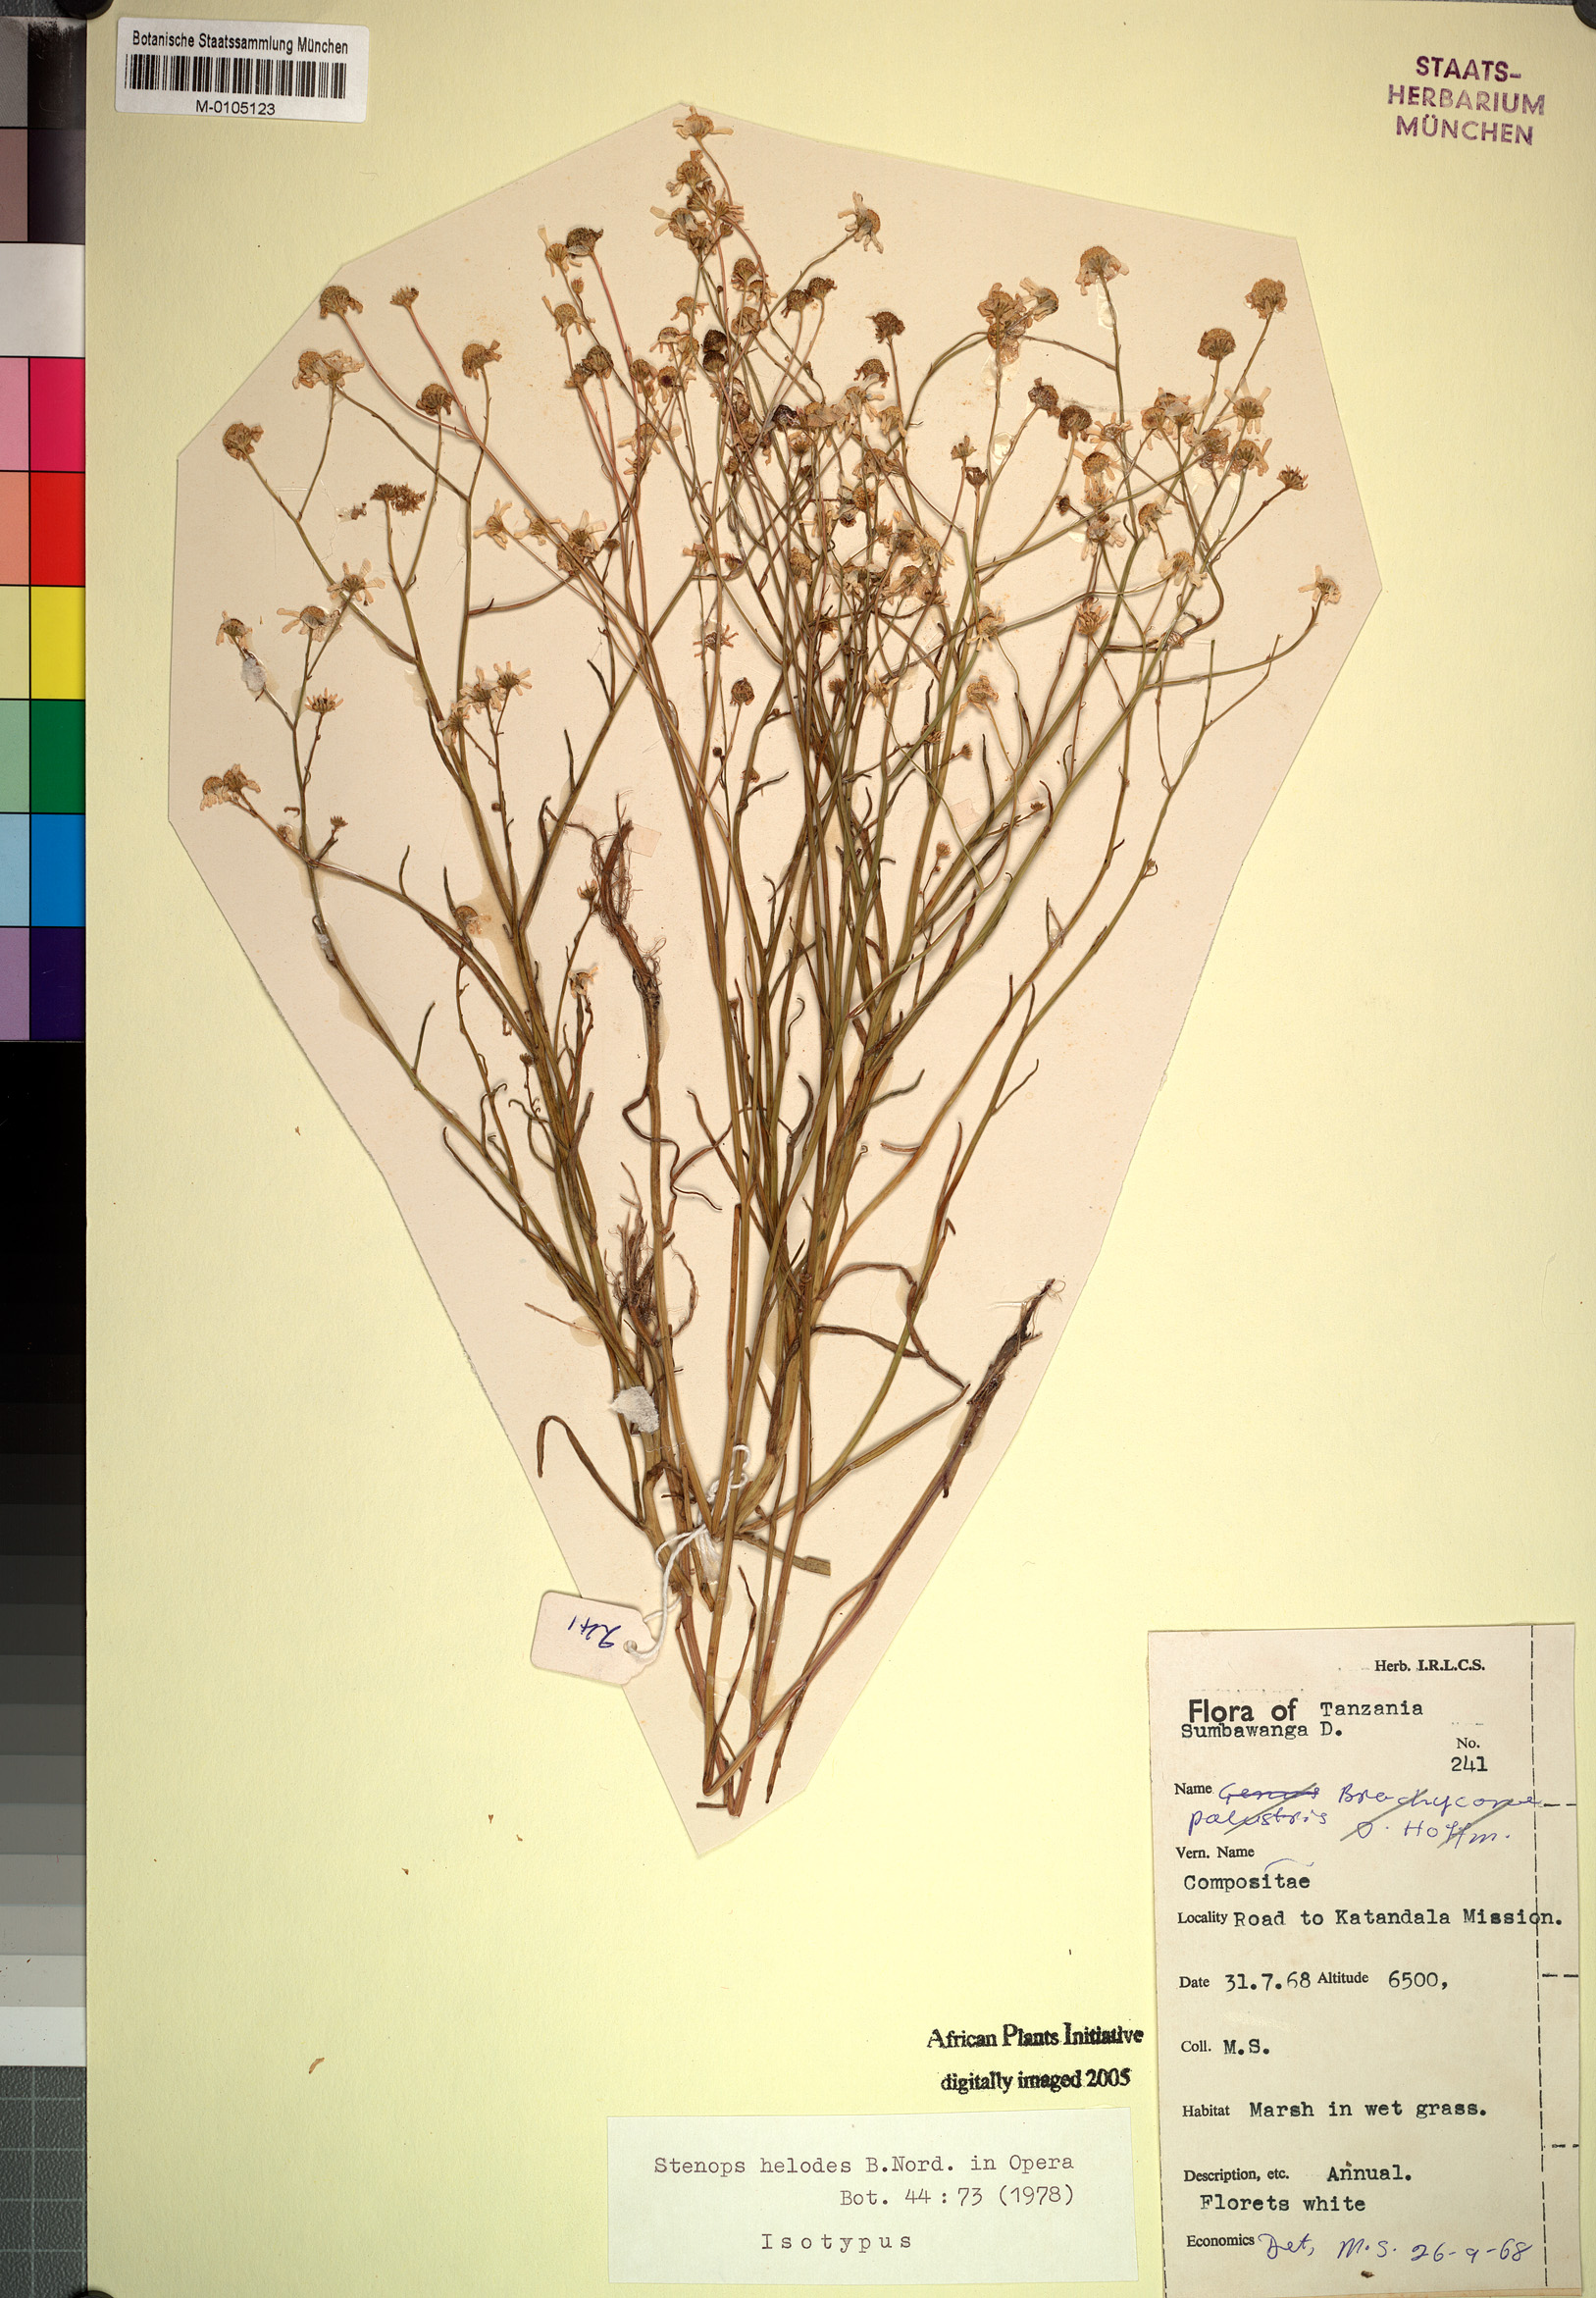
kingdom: Plantae
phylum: Tracheophyta
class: Magnoliopsida
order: Asterales
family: Asteraceae
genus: Stenops
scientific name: Stenops helodes
